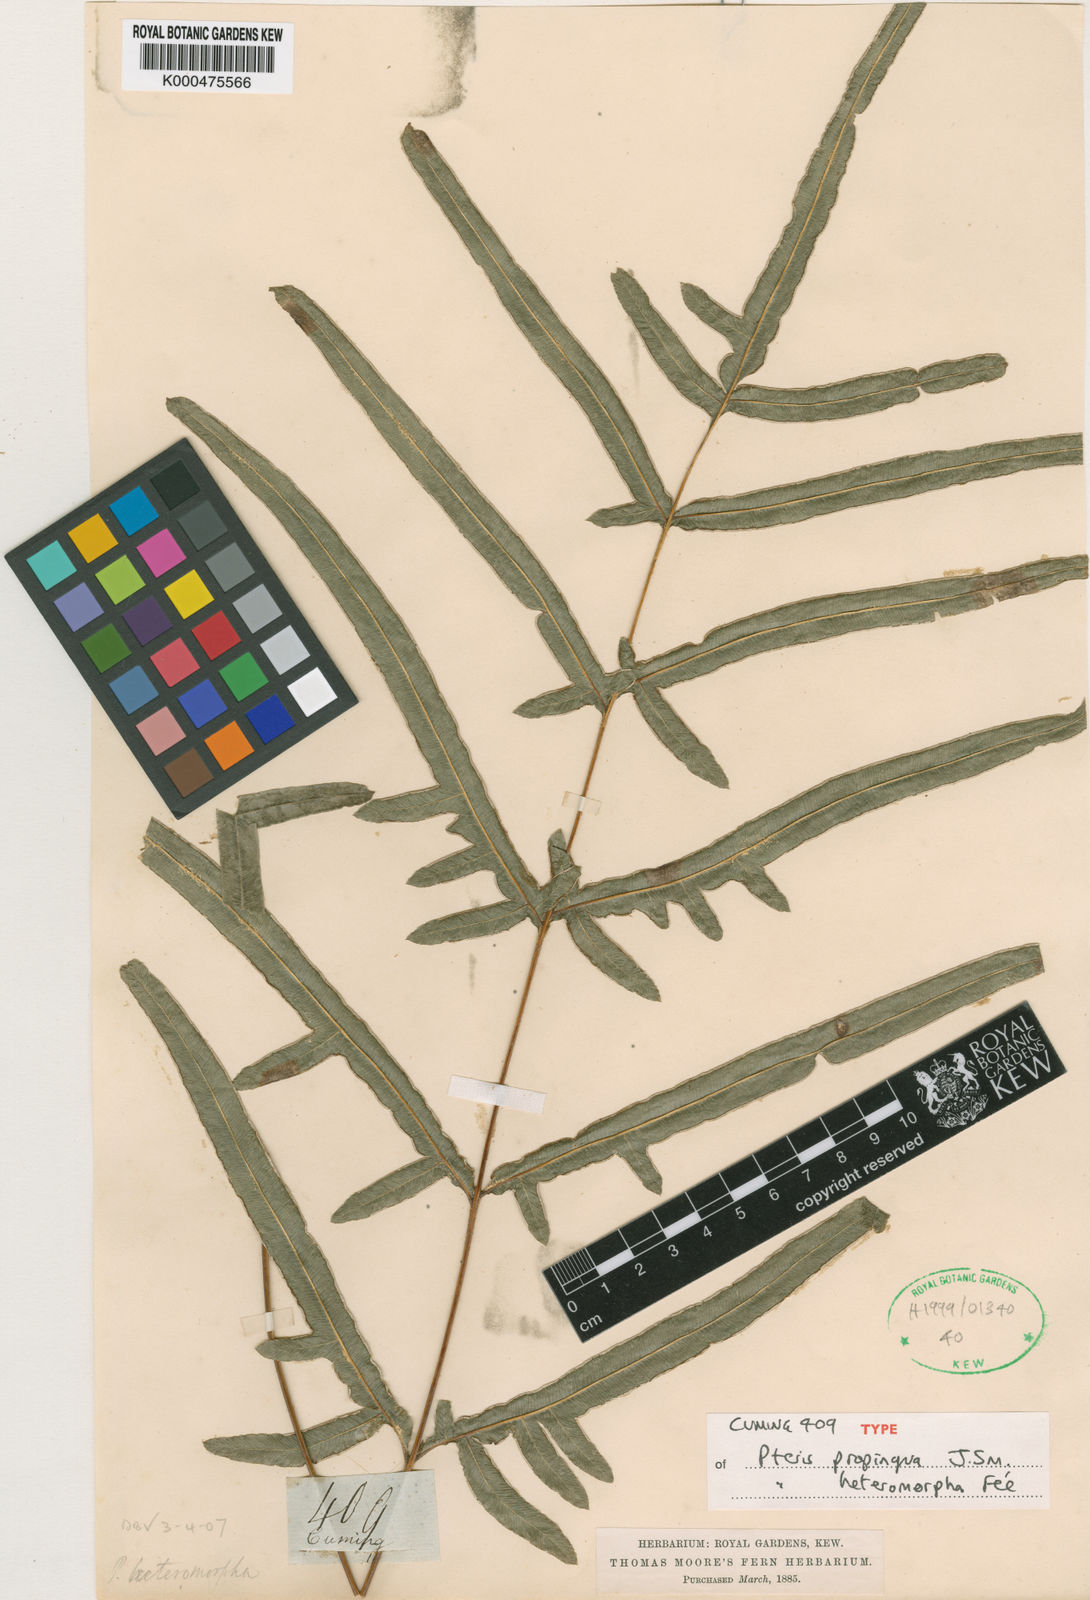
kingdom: Plantae
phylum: Tracheophyta
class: Polypodiopsida
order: Polypodiales
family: Pteridaceae
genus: Pteris
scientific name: Pteris
